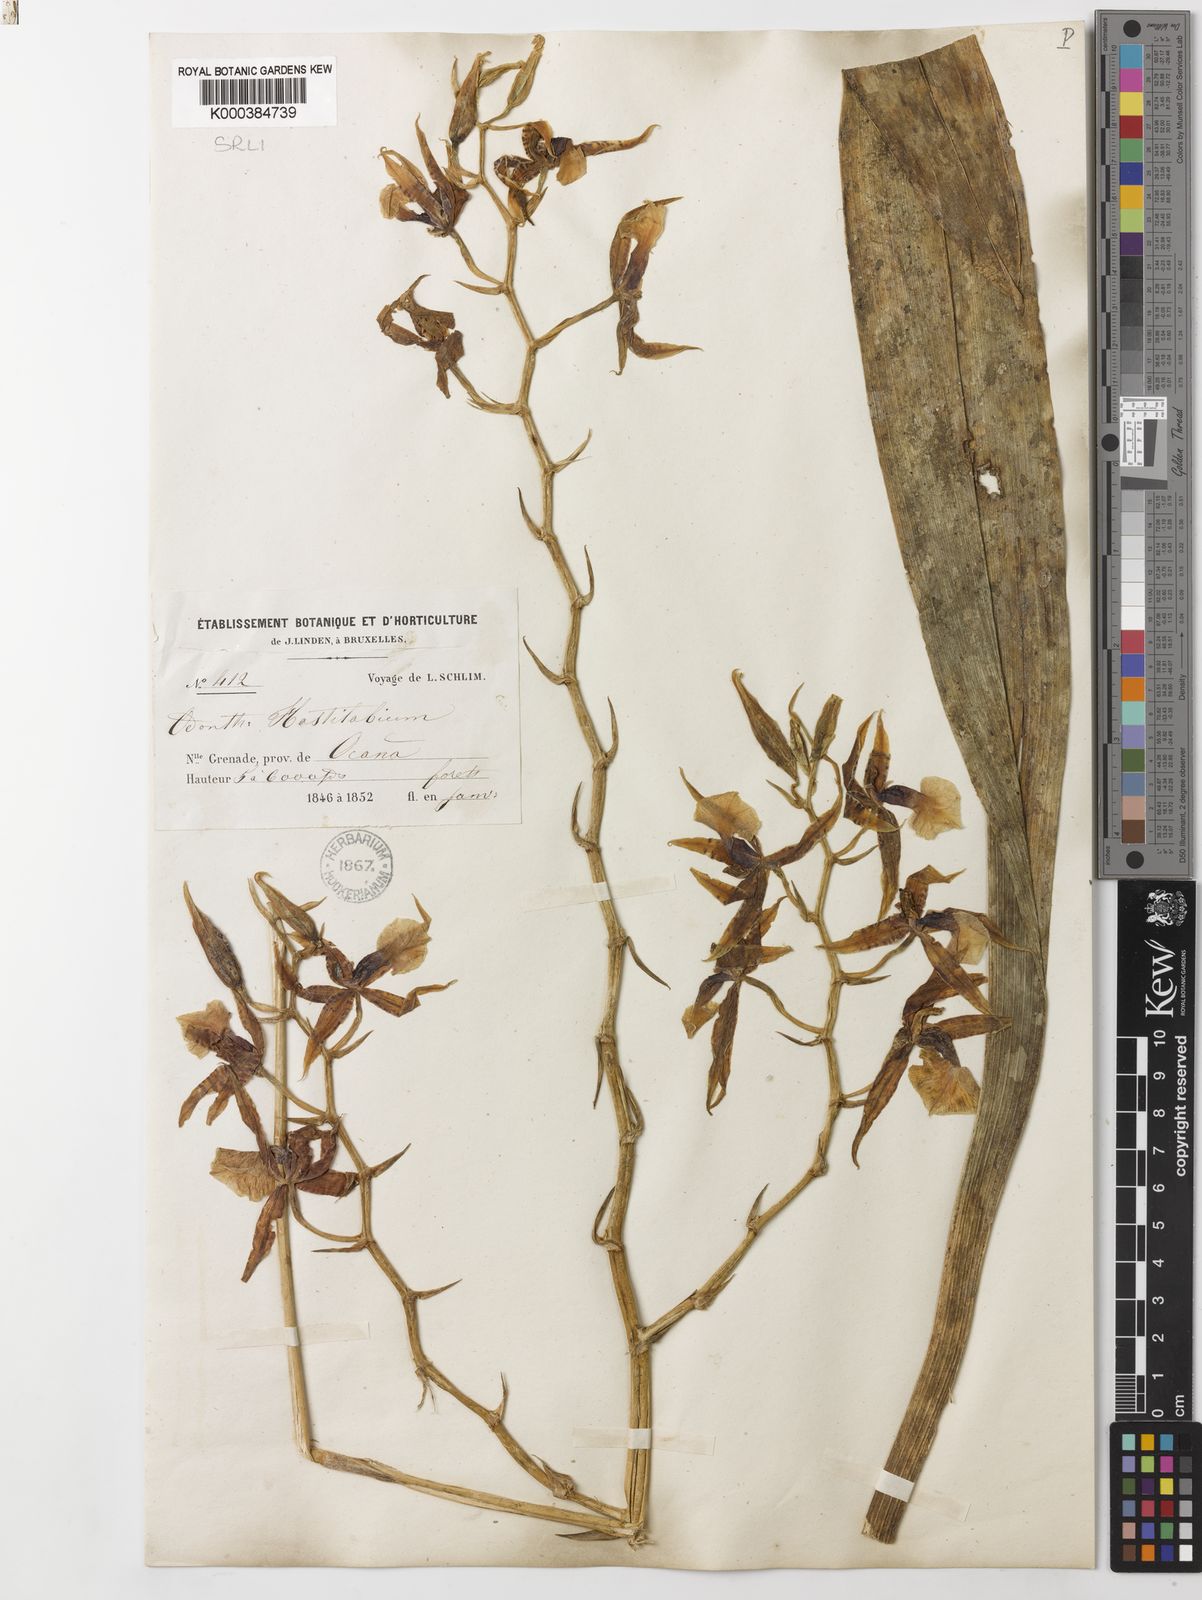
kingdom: Plantae
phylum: Tracheophyta
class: Liliopsida
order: Asparagales
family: Orchidaceae
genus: Oncidium
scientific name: Oncidium hastilabium
